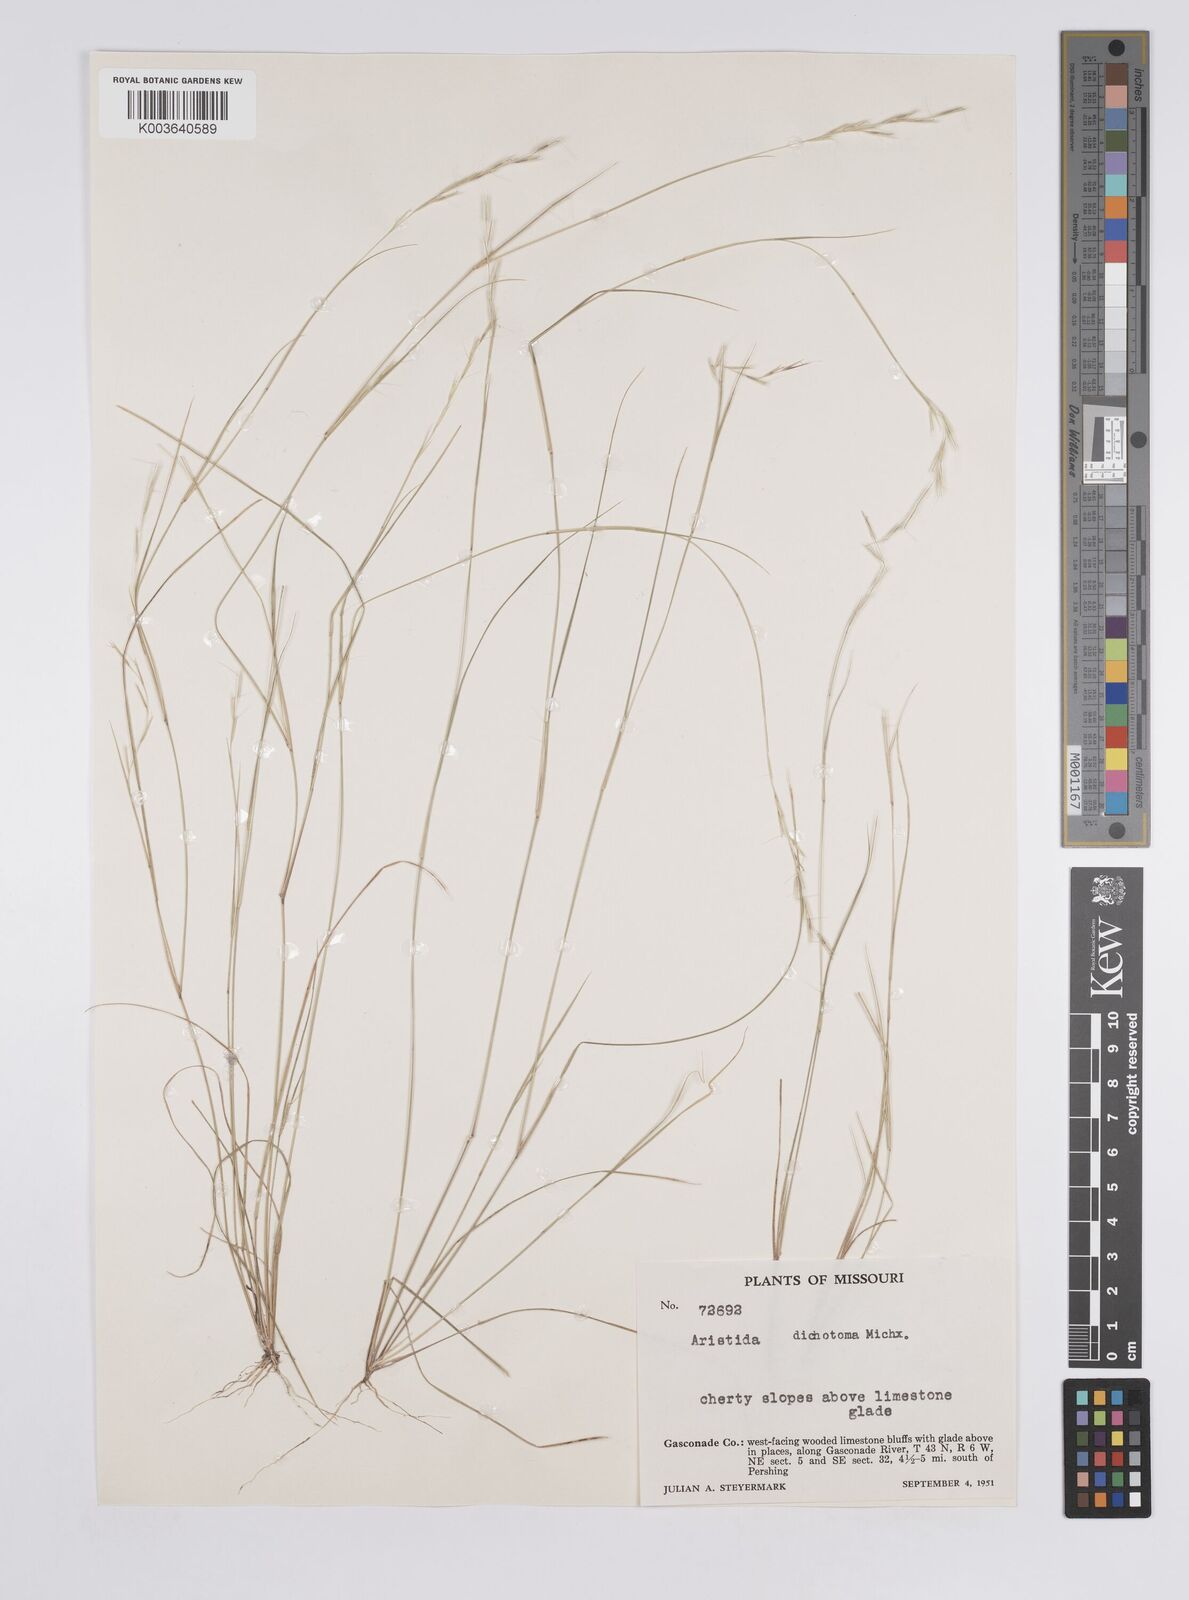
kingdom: Plantae
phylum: Tracheophyta
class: Liliopsida
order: Poales
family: Poaceae
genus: Aristida
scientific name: Aristida dichotoma
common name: Churchmouse three-awn
